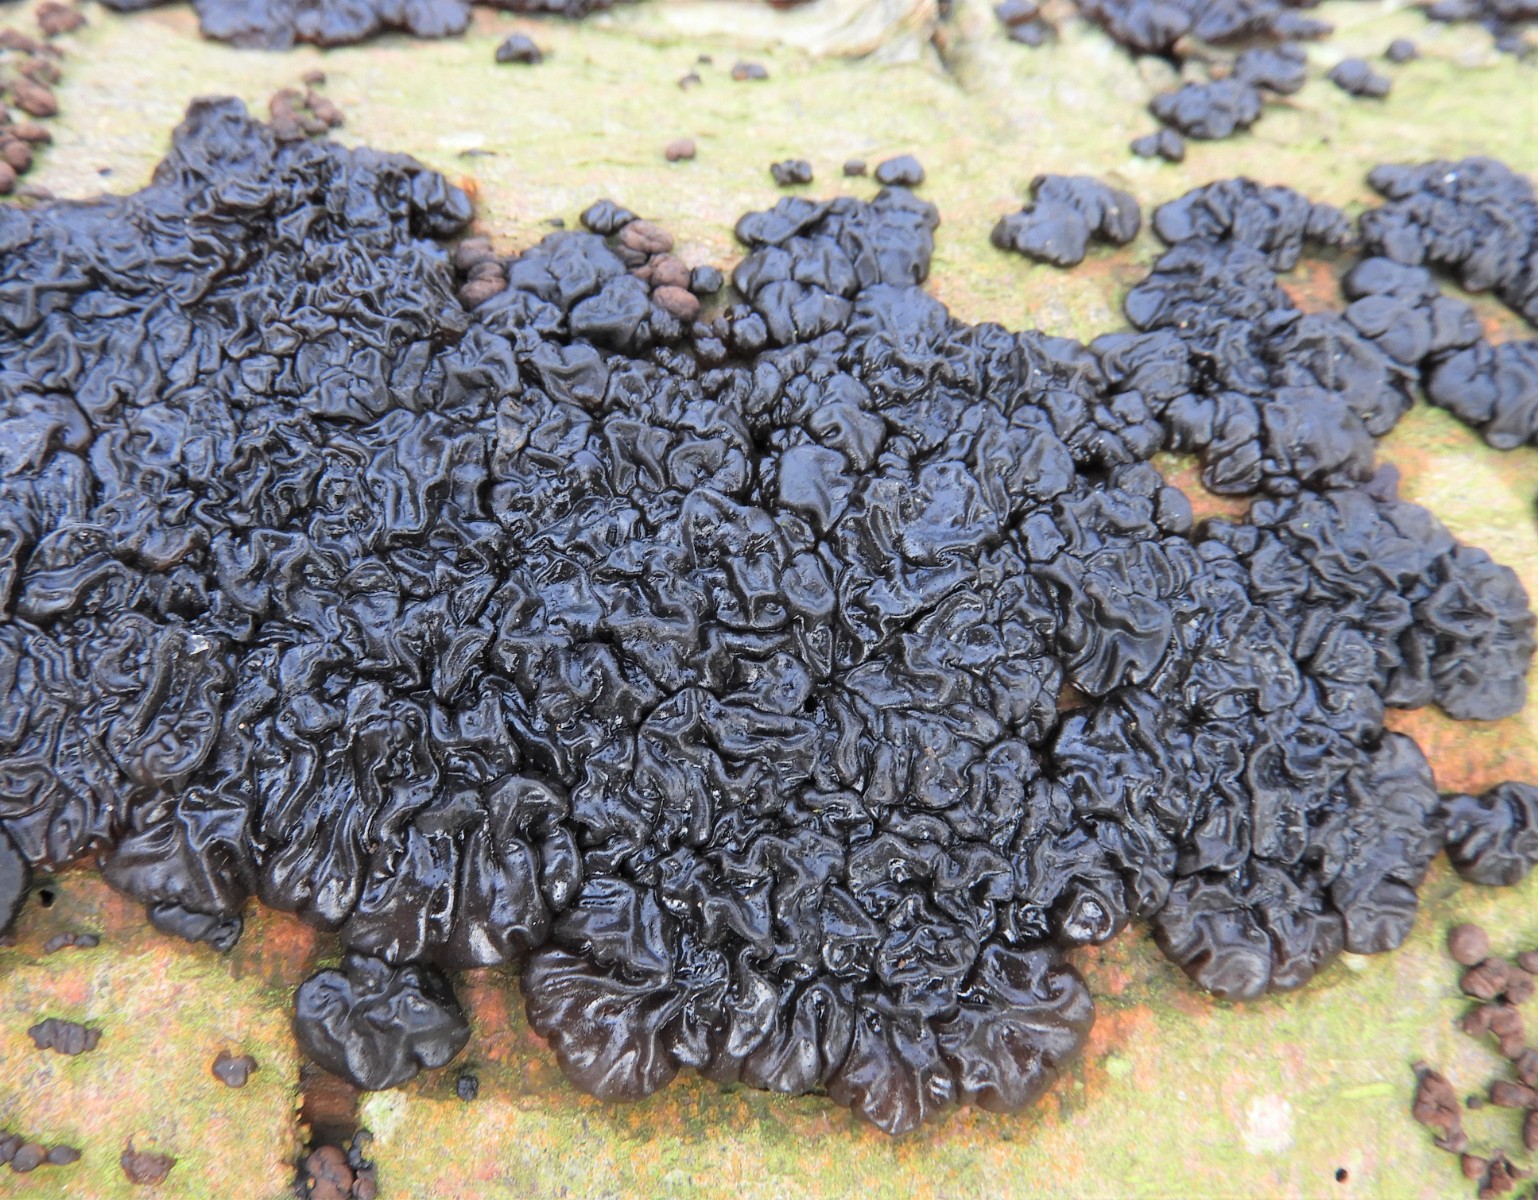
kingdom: Fungi
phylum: Basidiomycota
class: Agaricomycetes
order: Auriculariales
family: Auriculariaceae
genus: Exidia
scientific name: Exidia nigricans
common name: almindelig bævretop
